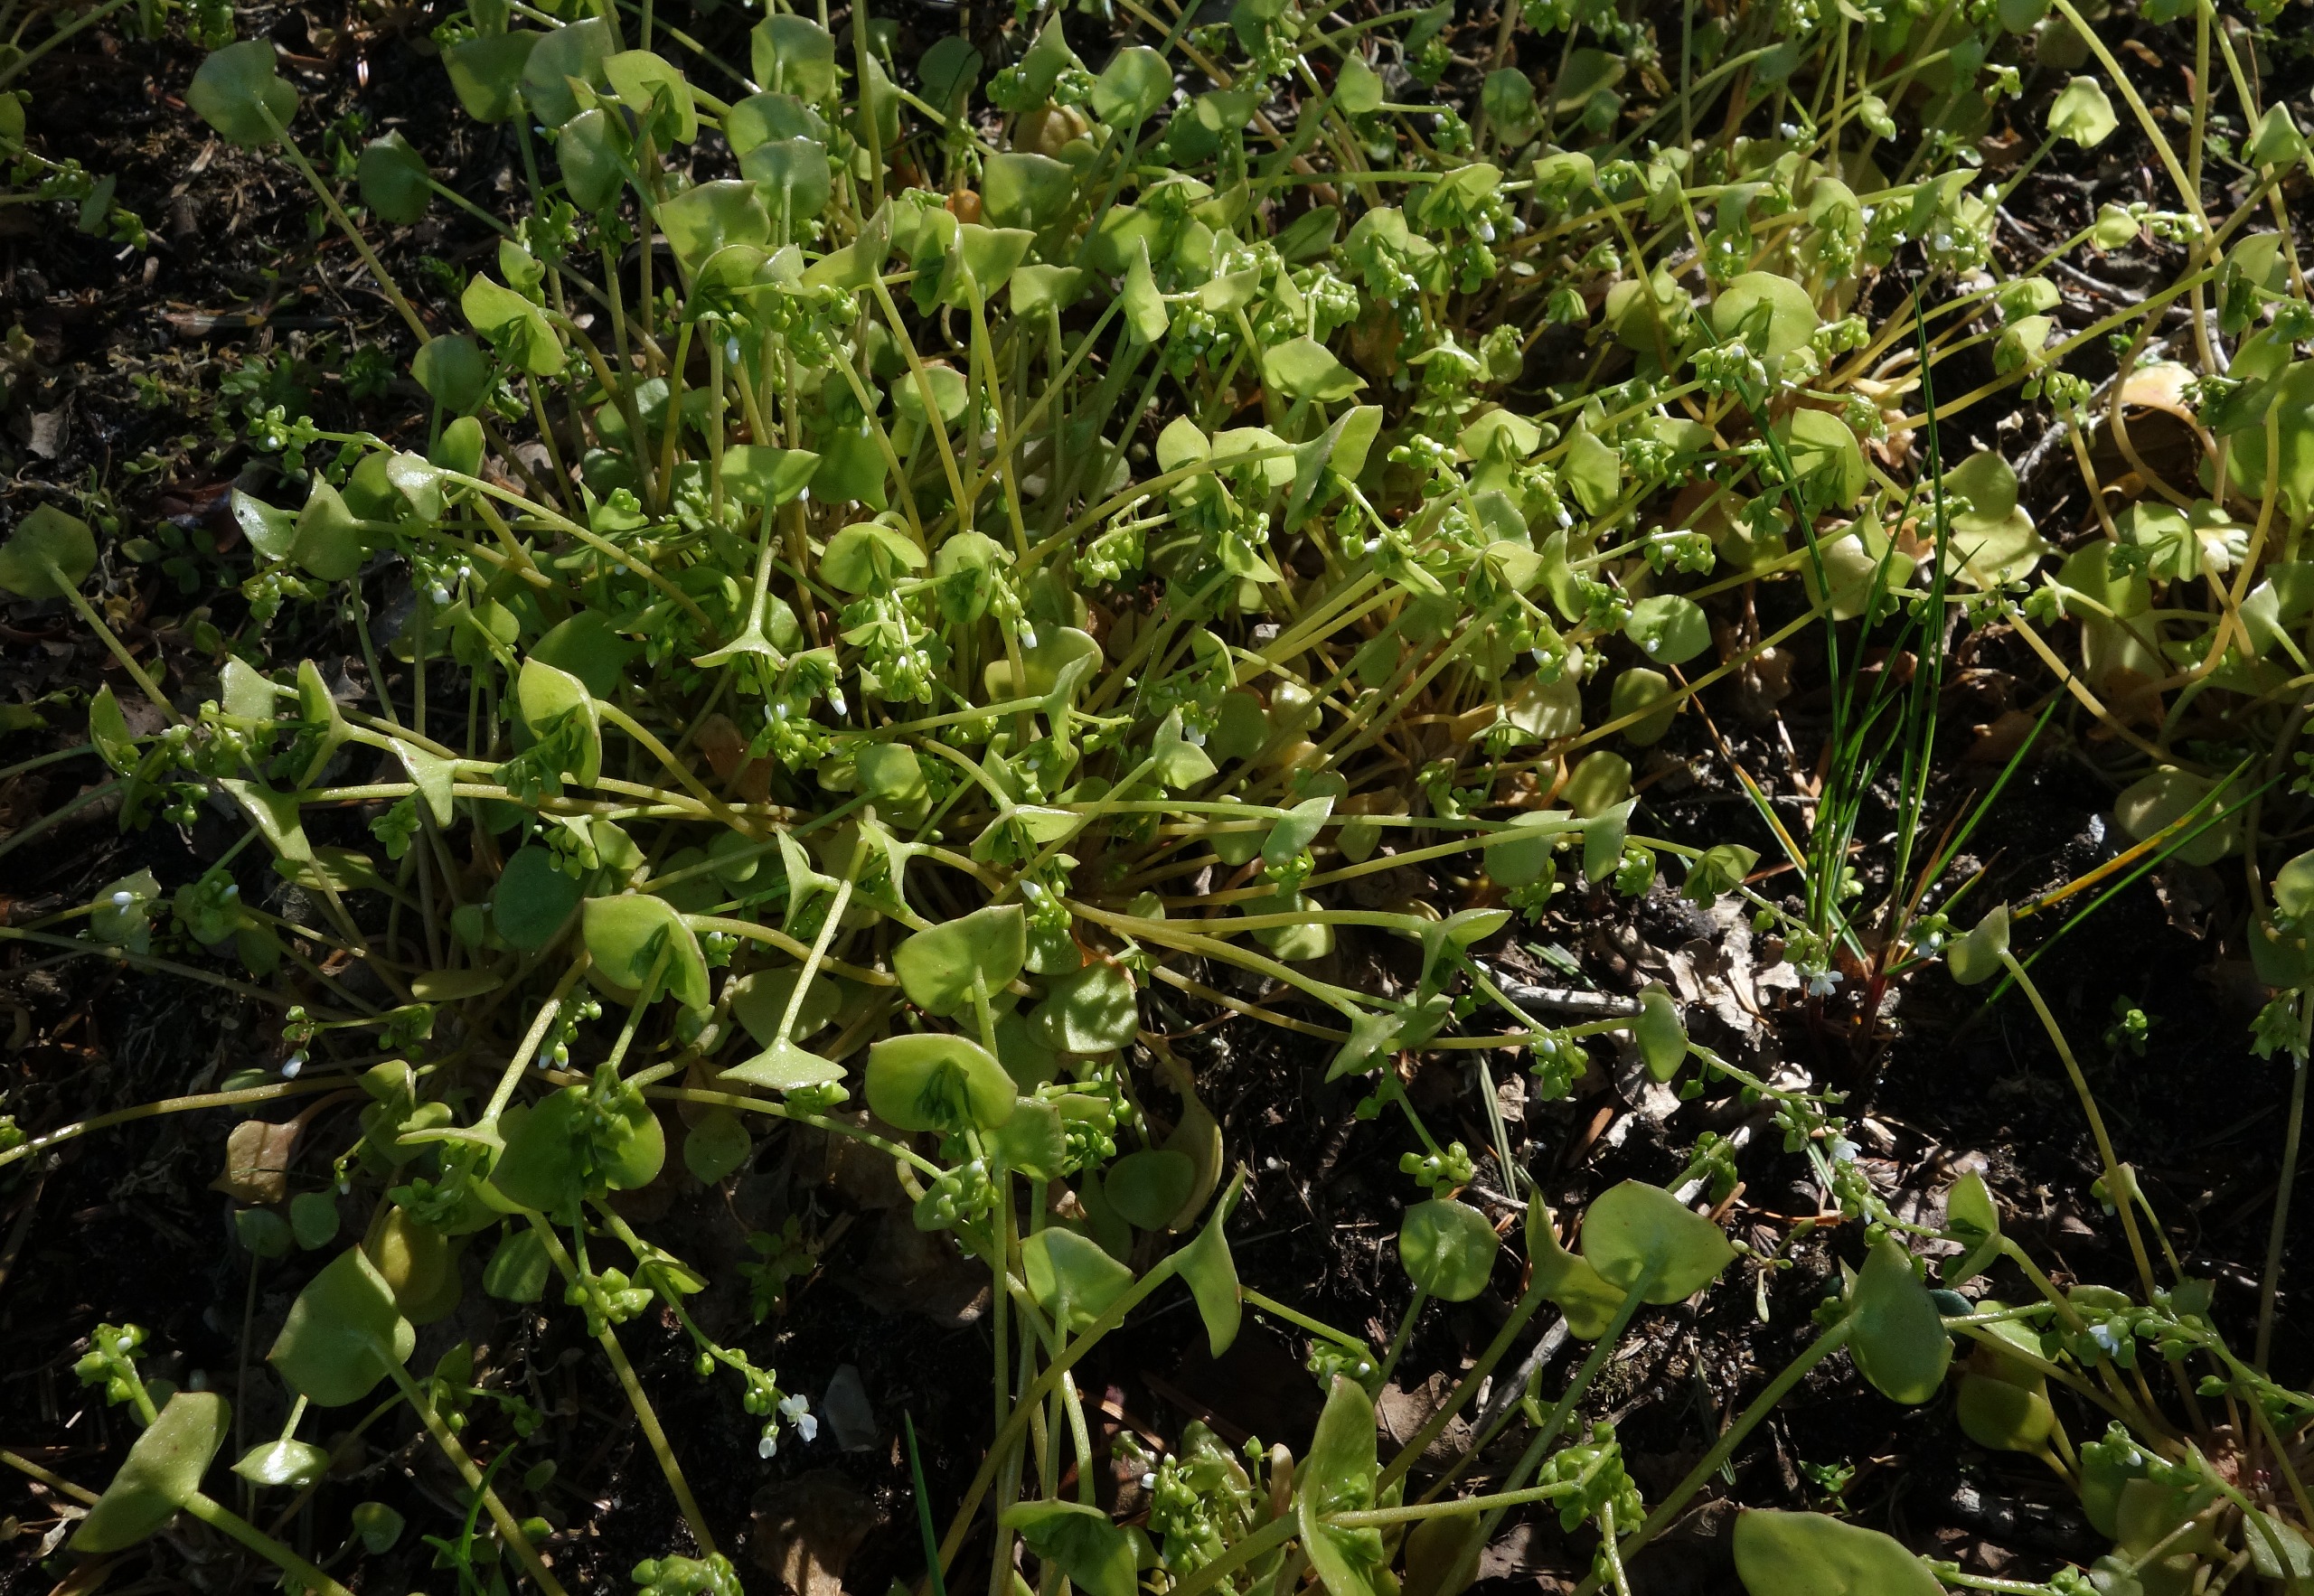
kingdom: Plantae
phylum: Tracheophyta
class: Magnoliopsida
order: Caryophyllales
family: Montiaceae
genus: Claytonia
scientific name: Claytonia perfoliata
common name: Spiselig vinterportulak
